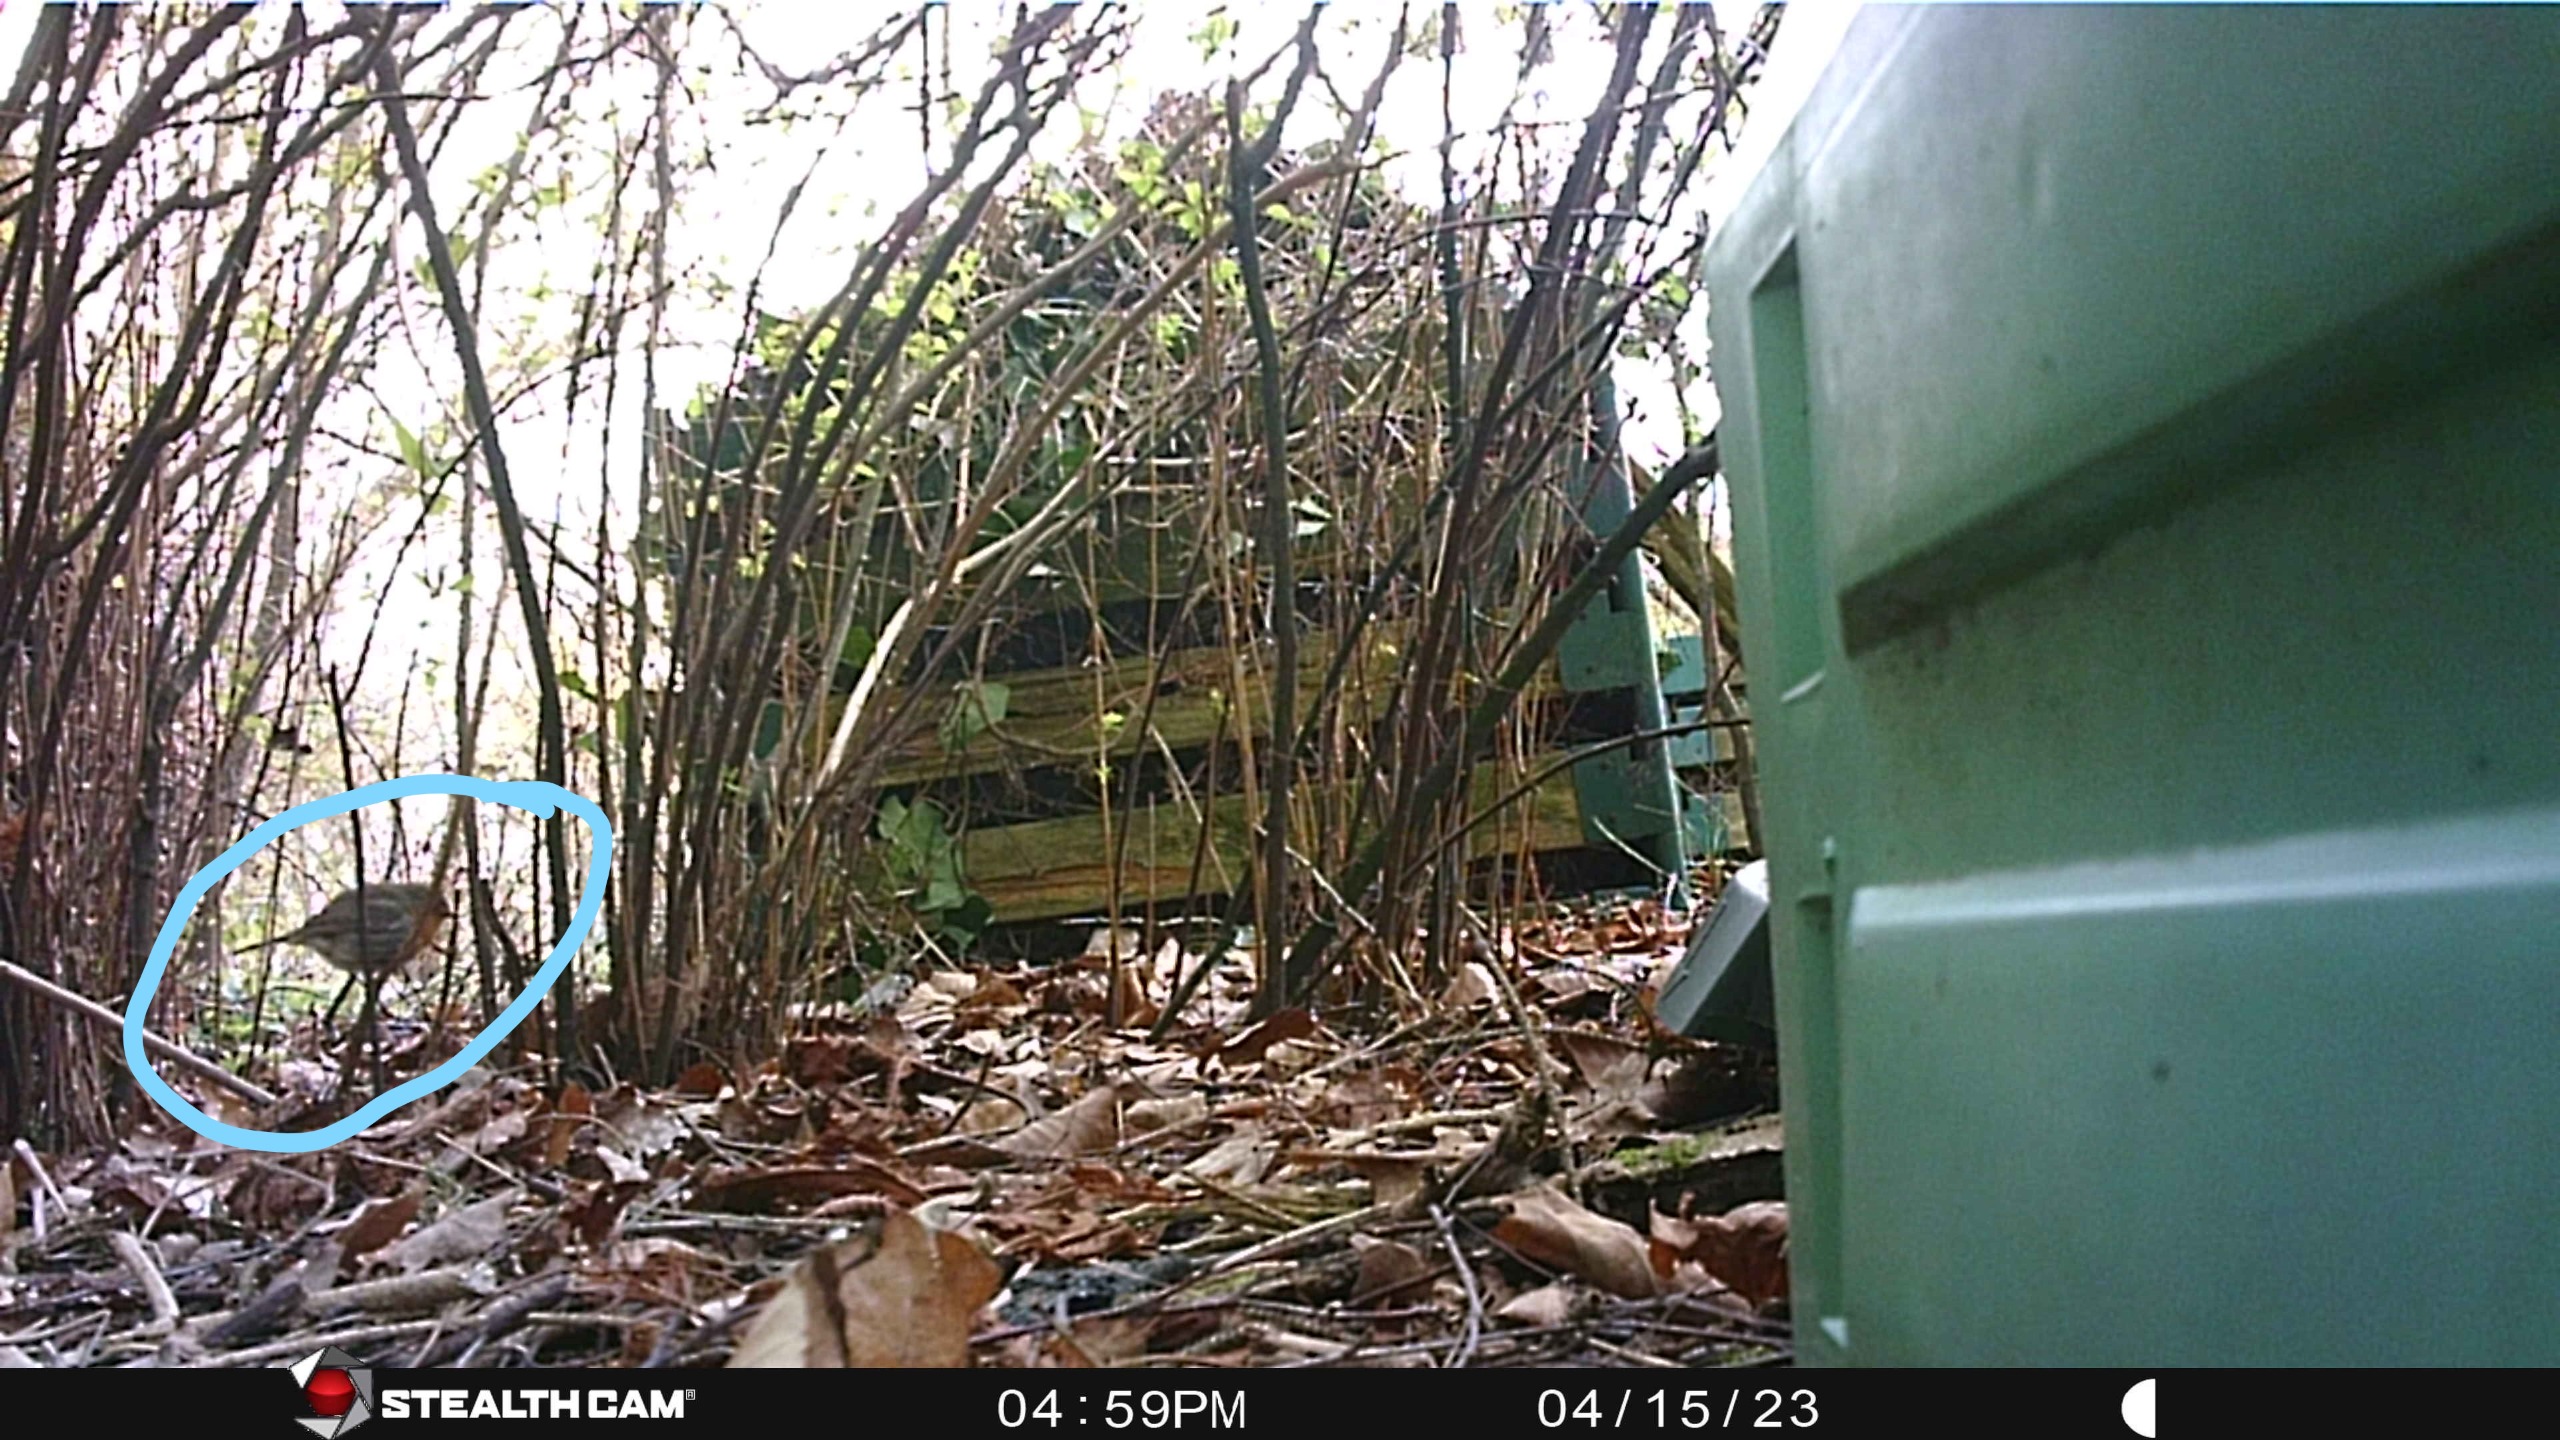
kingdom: Animalia
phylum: Chordata
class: Aves
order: Passeriformes
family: Muscicapidae
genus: Erithacus
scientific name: Erithacus rubecula
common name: Rødhals/rødkælk
